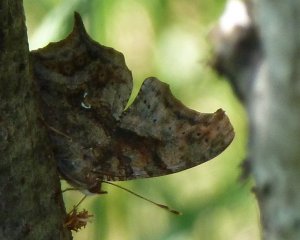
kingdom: Animalia
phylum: Arthropoda
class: Insecta
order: Lepidoptera
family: Nymphalidae
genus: Polygonia
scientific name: Polygonia interrogationis
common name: Question Mark
